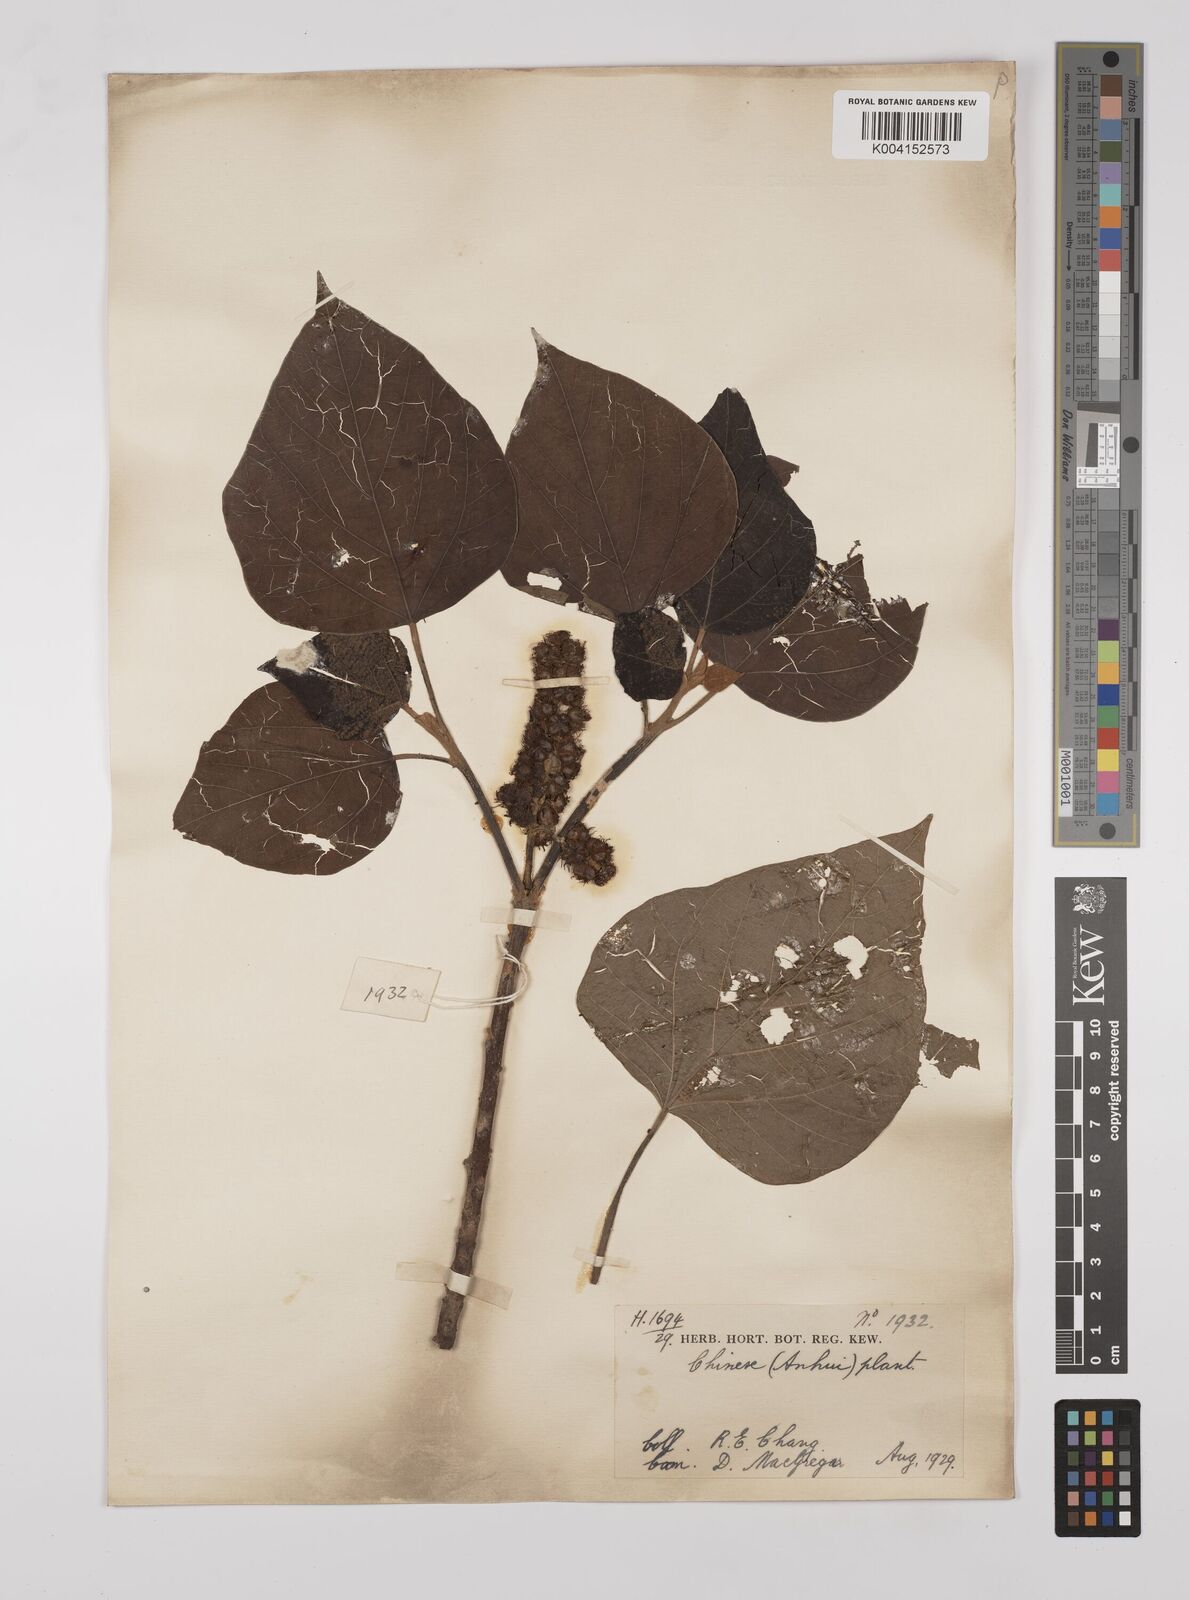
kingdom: Plantae
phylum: Tracheophyta
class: Magnoliopsida
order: Malpighiales
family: Euphorbiaceae
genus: Mallotus
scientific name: Mallotus japonicus
